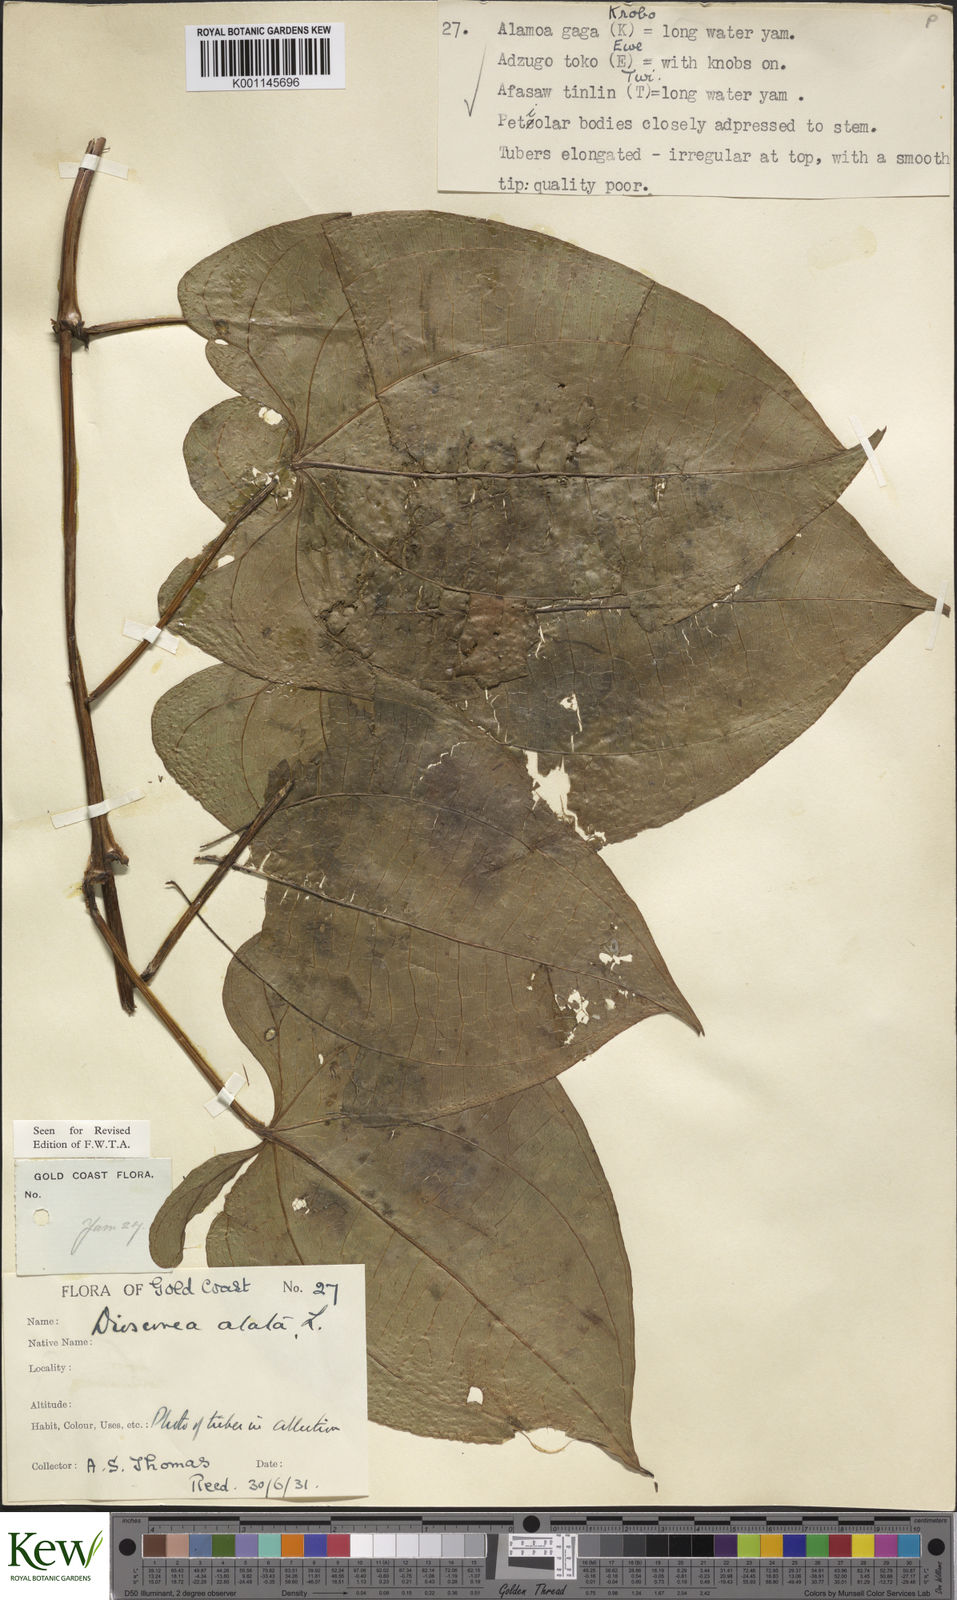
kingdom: Plantae
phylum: Tracheophyta
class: Liliopsida
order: Dioscoreales
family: Dioscoreaceae
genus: Dioscorea
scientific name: Dioscorea alata
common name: Water yam
